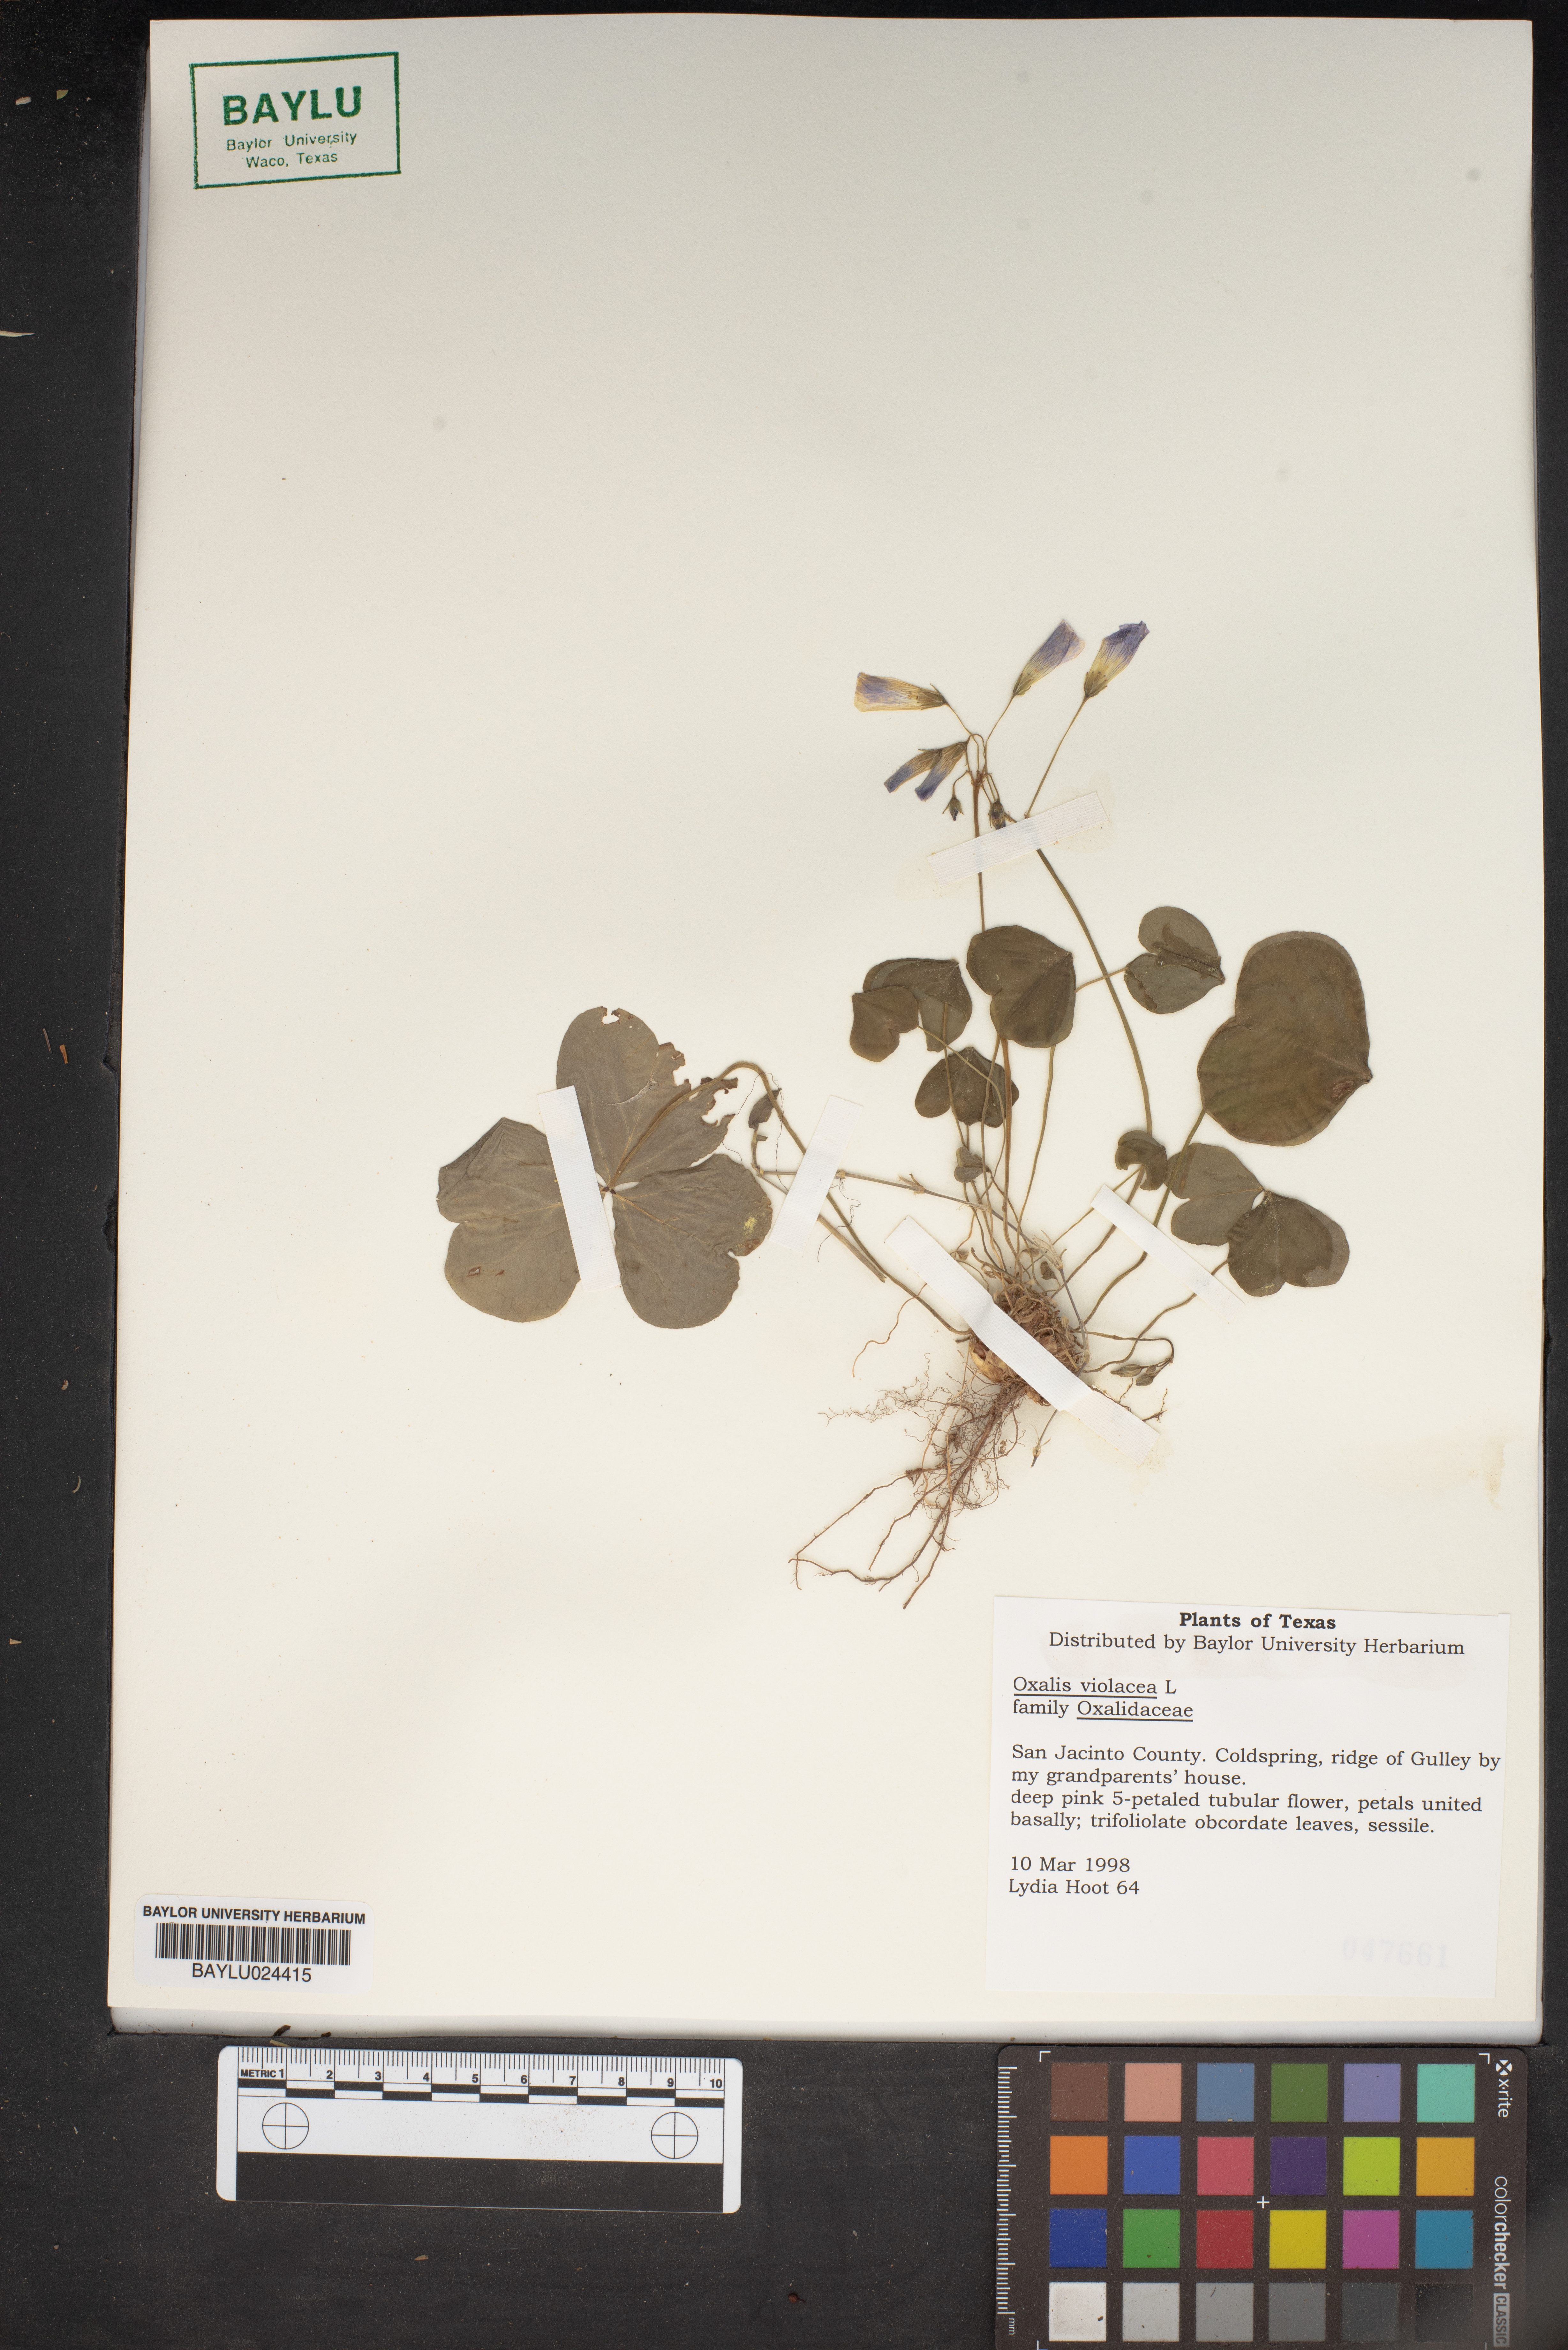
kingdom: Plantae
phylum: Tracheophyta
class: Magnoliopsida
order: Oxalidales
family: Oxalidaceae
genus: Oxalis
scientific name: Oxalis violacea
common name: Violet wood-sorrel
